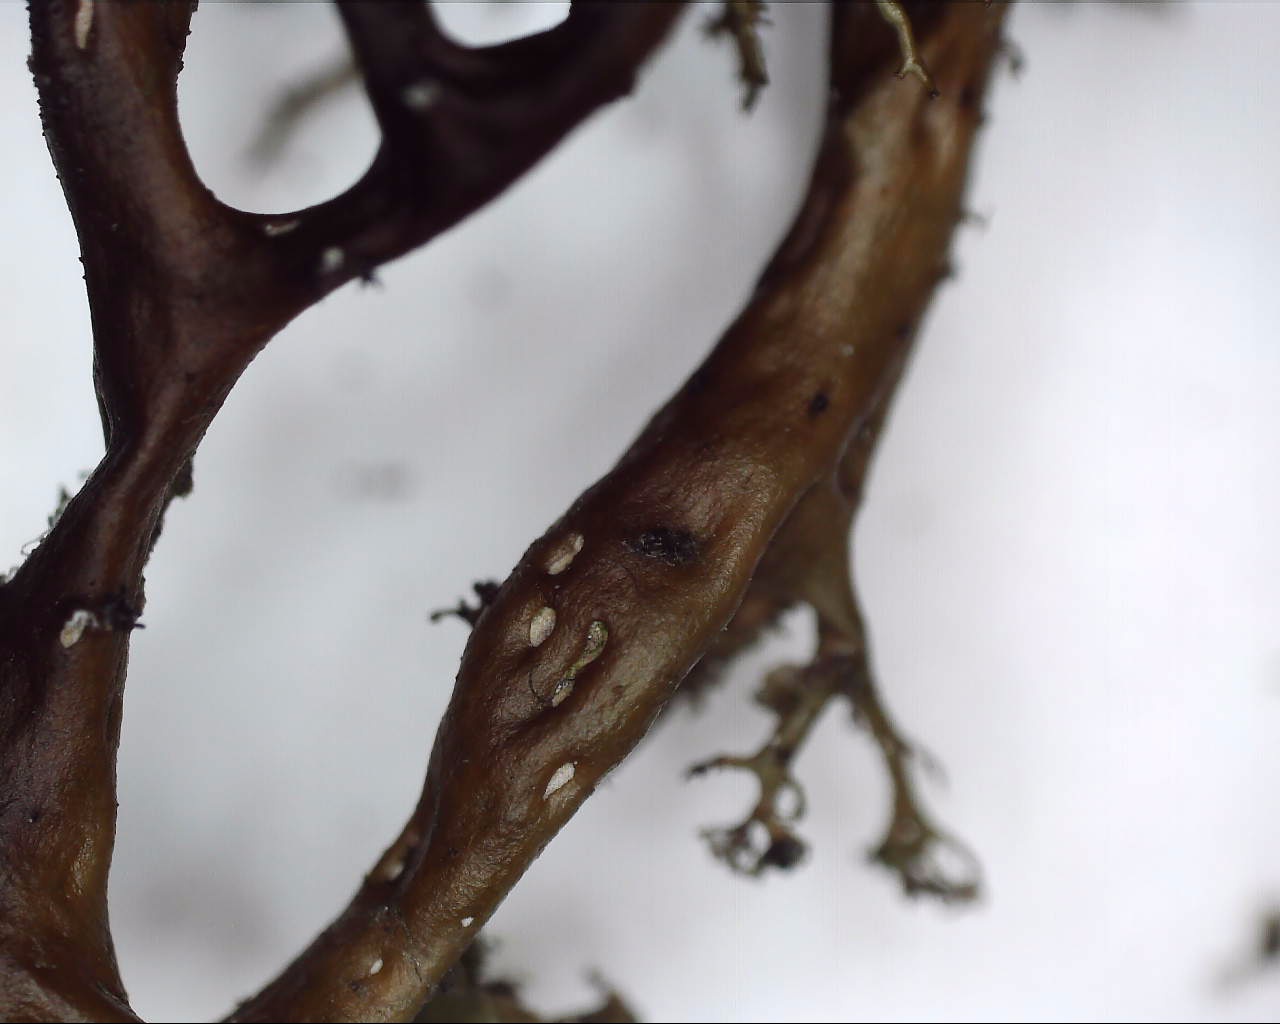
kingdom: Fungi
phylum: Ascomycota
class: Lecanoromycetes
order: Lecanorales
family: Parmeliaceae
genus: Cetraria
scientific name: Cetraria aculeata
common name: grubet tjørnelav
